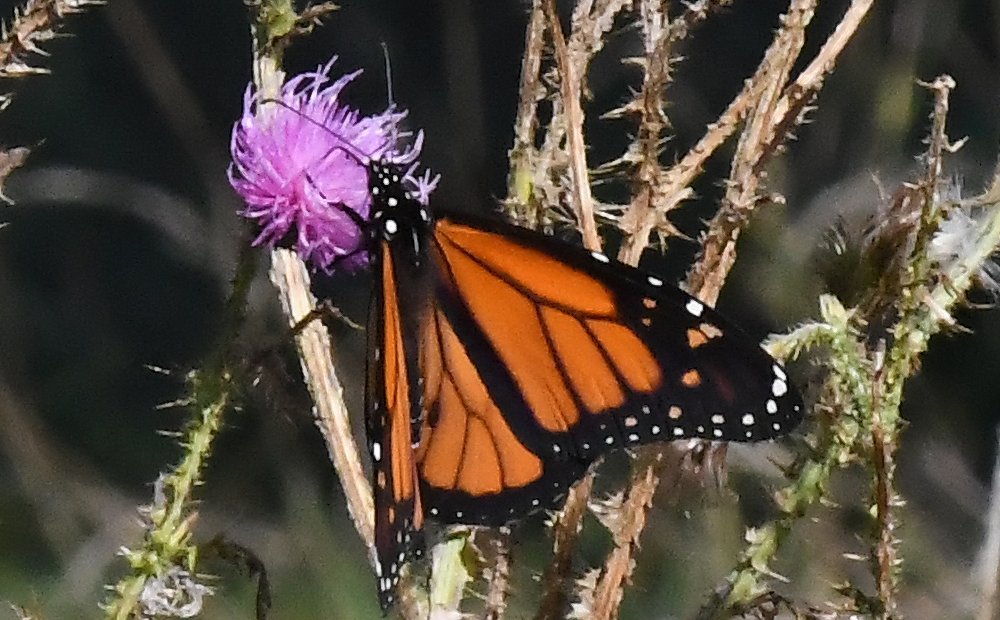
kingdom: Animalia
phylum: Arthropoda
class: Insecta
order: Lepidoptera
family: Nymphalidae
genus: Danaus
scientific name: Danaus plexippus
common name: Monarch
